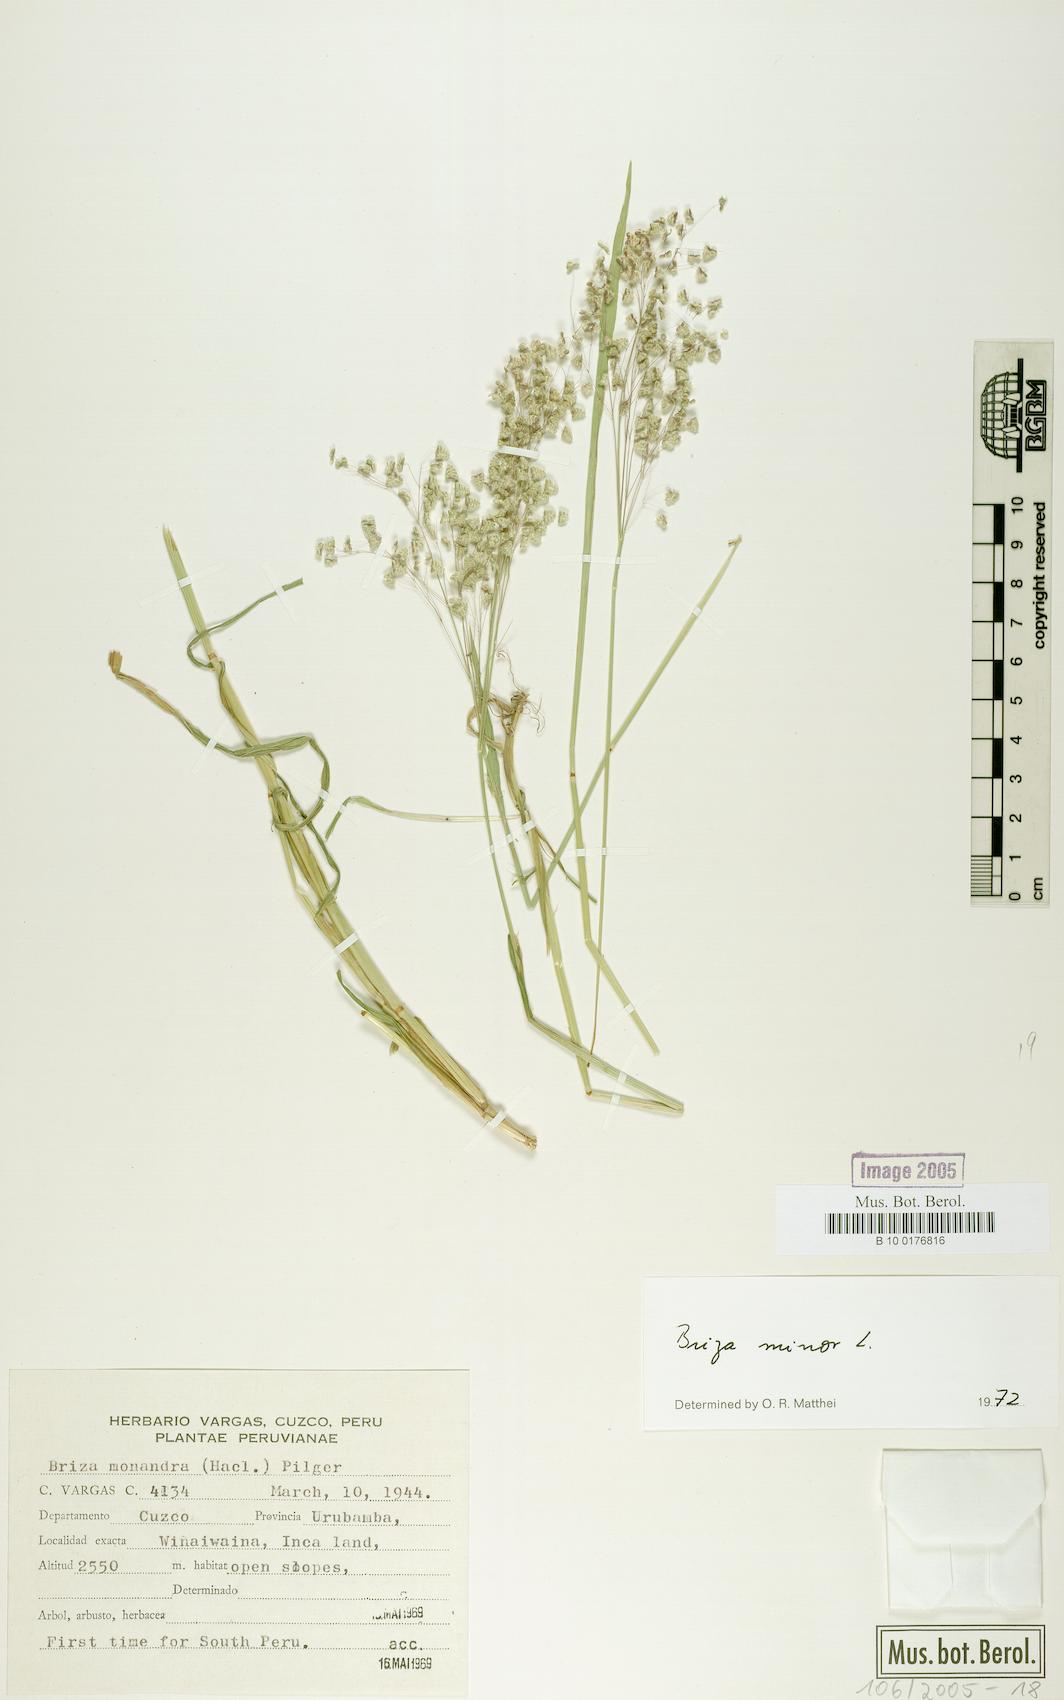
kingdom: Plantae
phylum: Tracheophyta
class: Liliopsida
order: Poales
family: Poaceae
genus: Briza
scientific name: Briza minor
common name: Lesser quaking-grass
